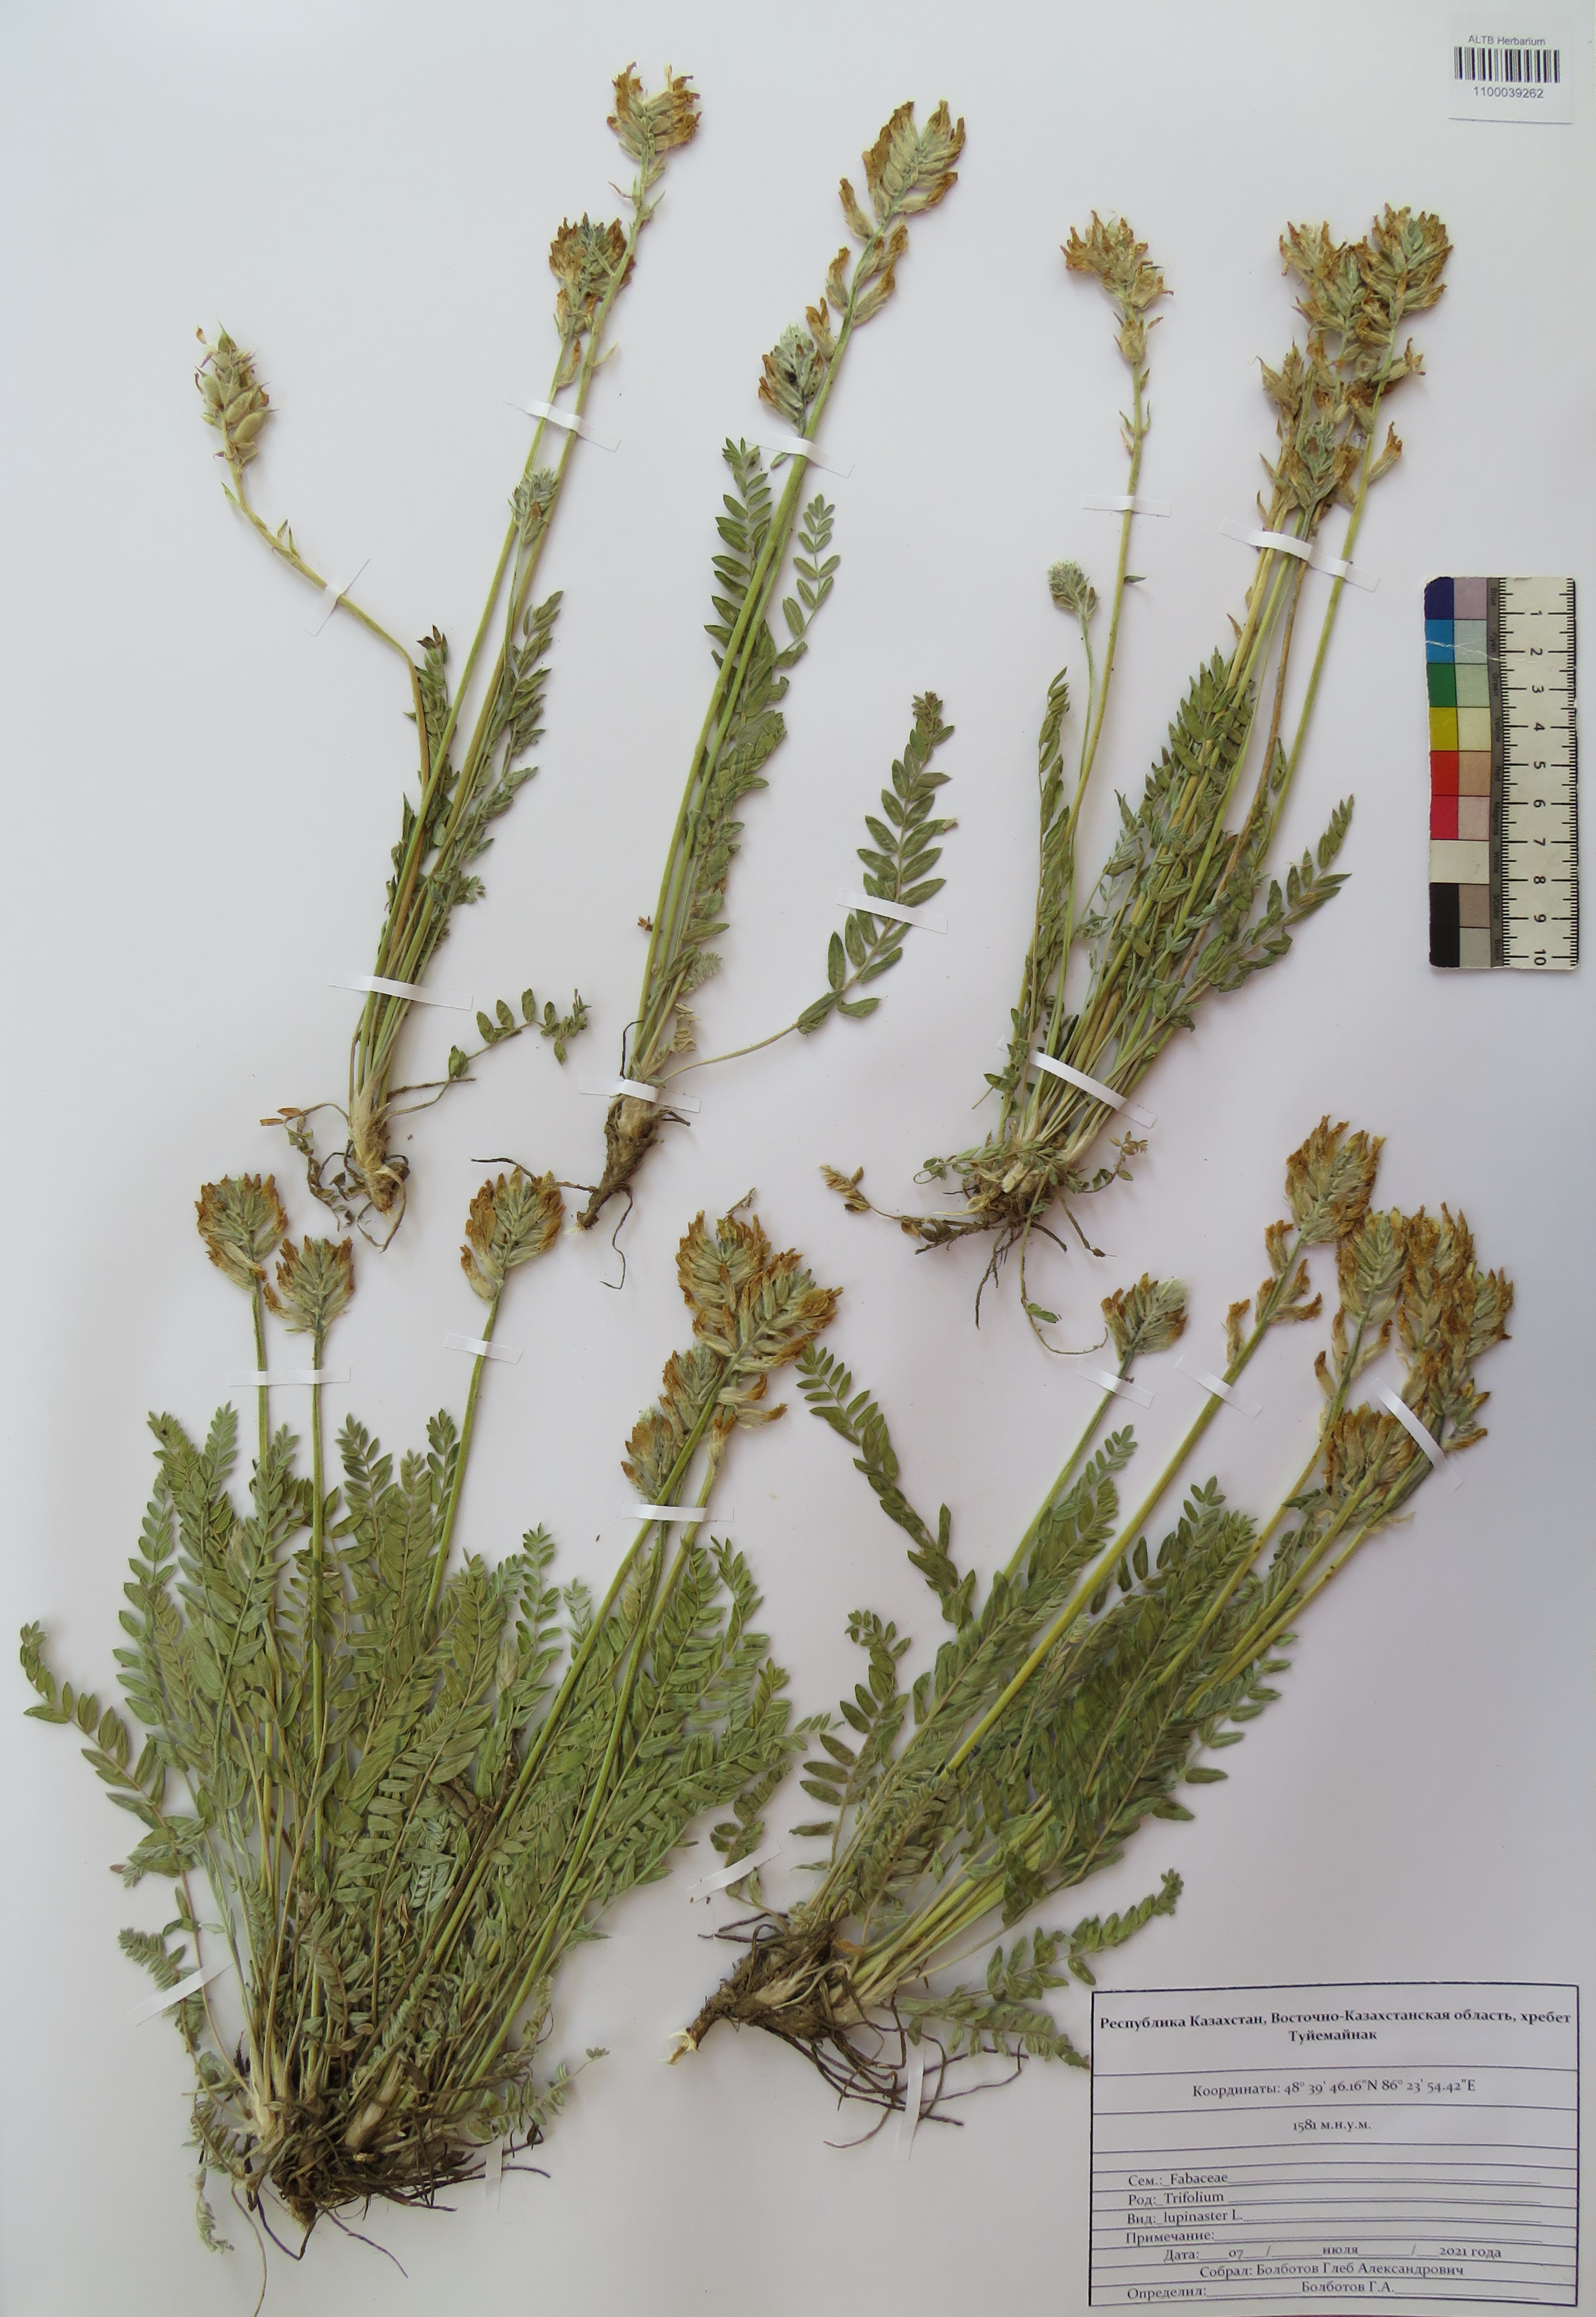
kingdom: Plantae
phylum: Tracheophyta
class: Magnoliopsida
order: Fabales
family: Fabaceae
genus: Trifolium
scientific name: Trifolium lupinaster
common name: Lupine clover
